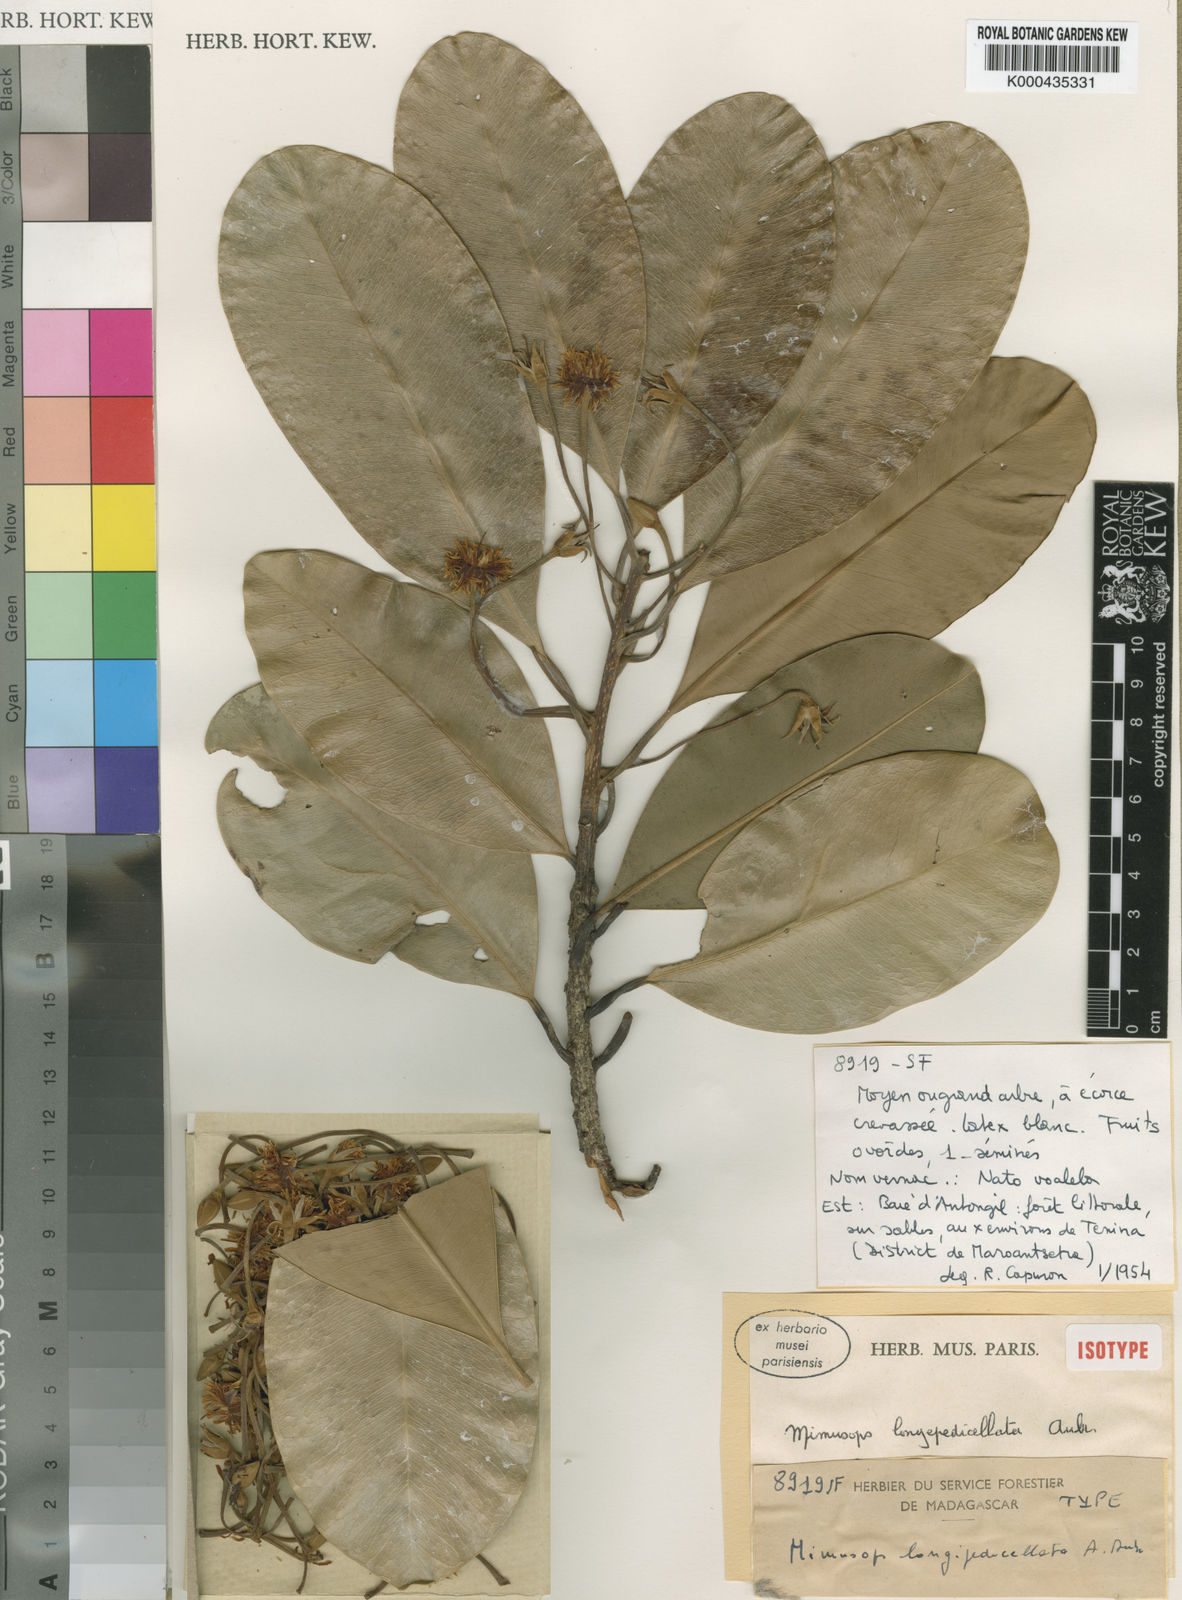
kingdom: Plantae
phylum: Tracheophyta
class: Magnoliopsida
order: Ericales
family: Sapotaceae
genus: Mimusops
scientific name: Mimusops
